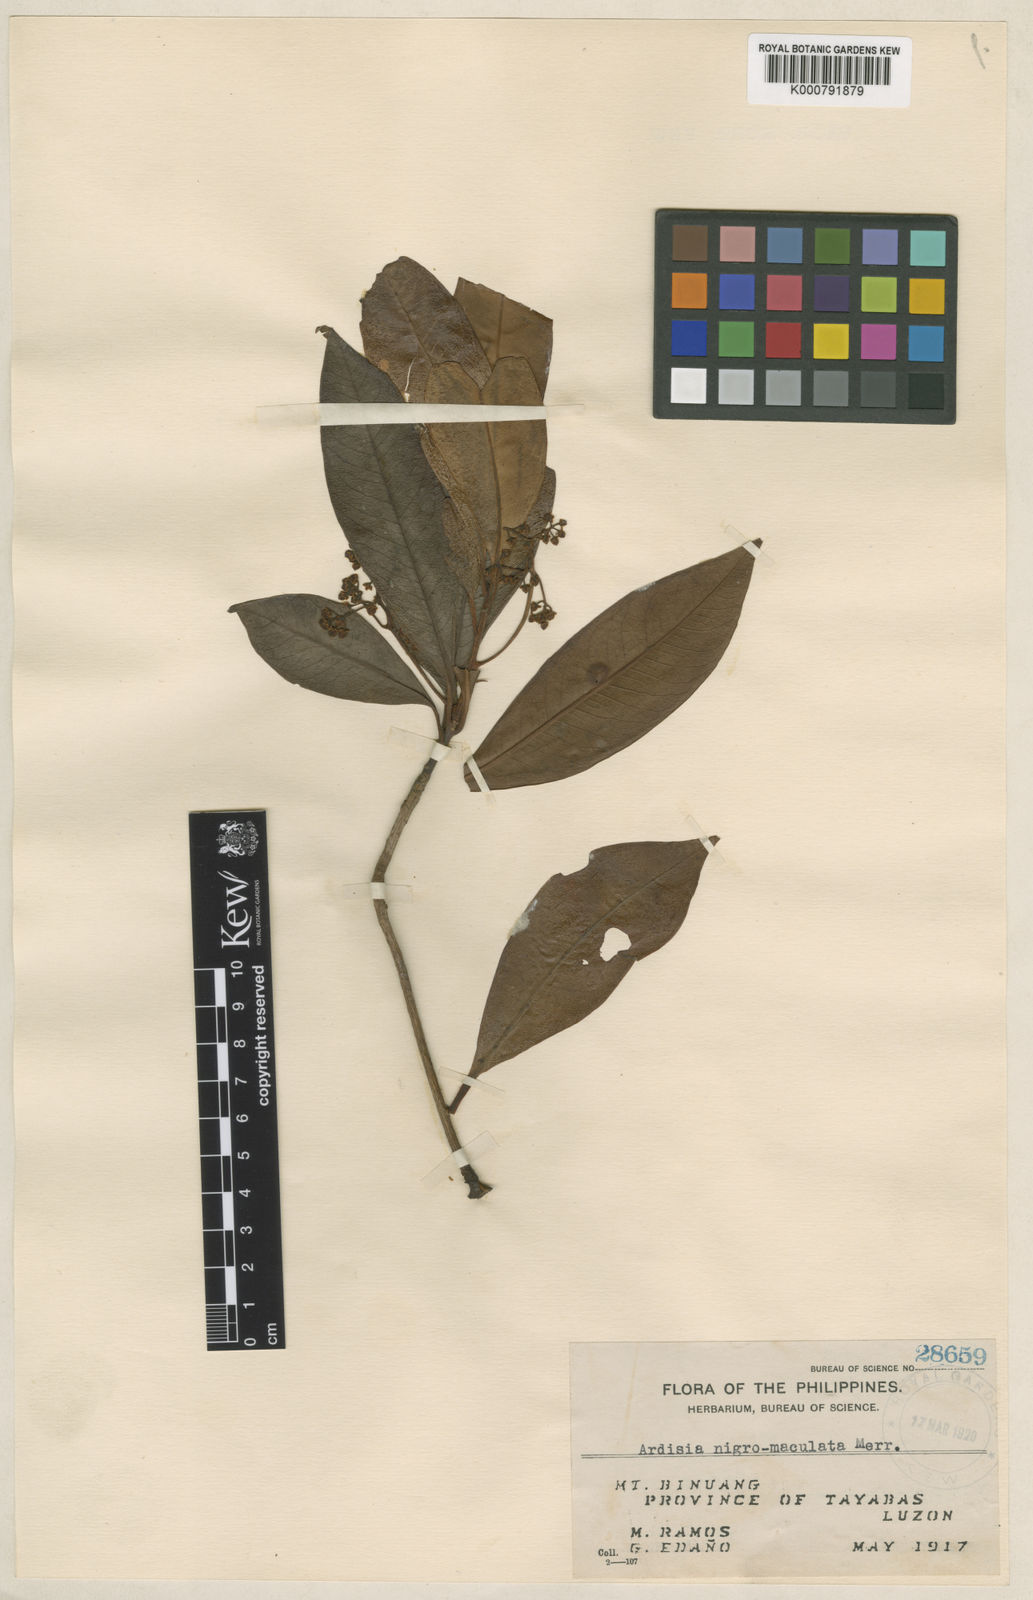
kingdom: Plantae
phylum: Tracheophyta
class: Magnoliopsida
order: Ericales
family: Primulaceae
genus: Ardisia
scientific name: Ardisia nigromaculata
